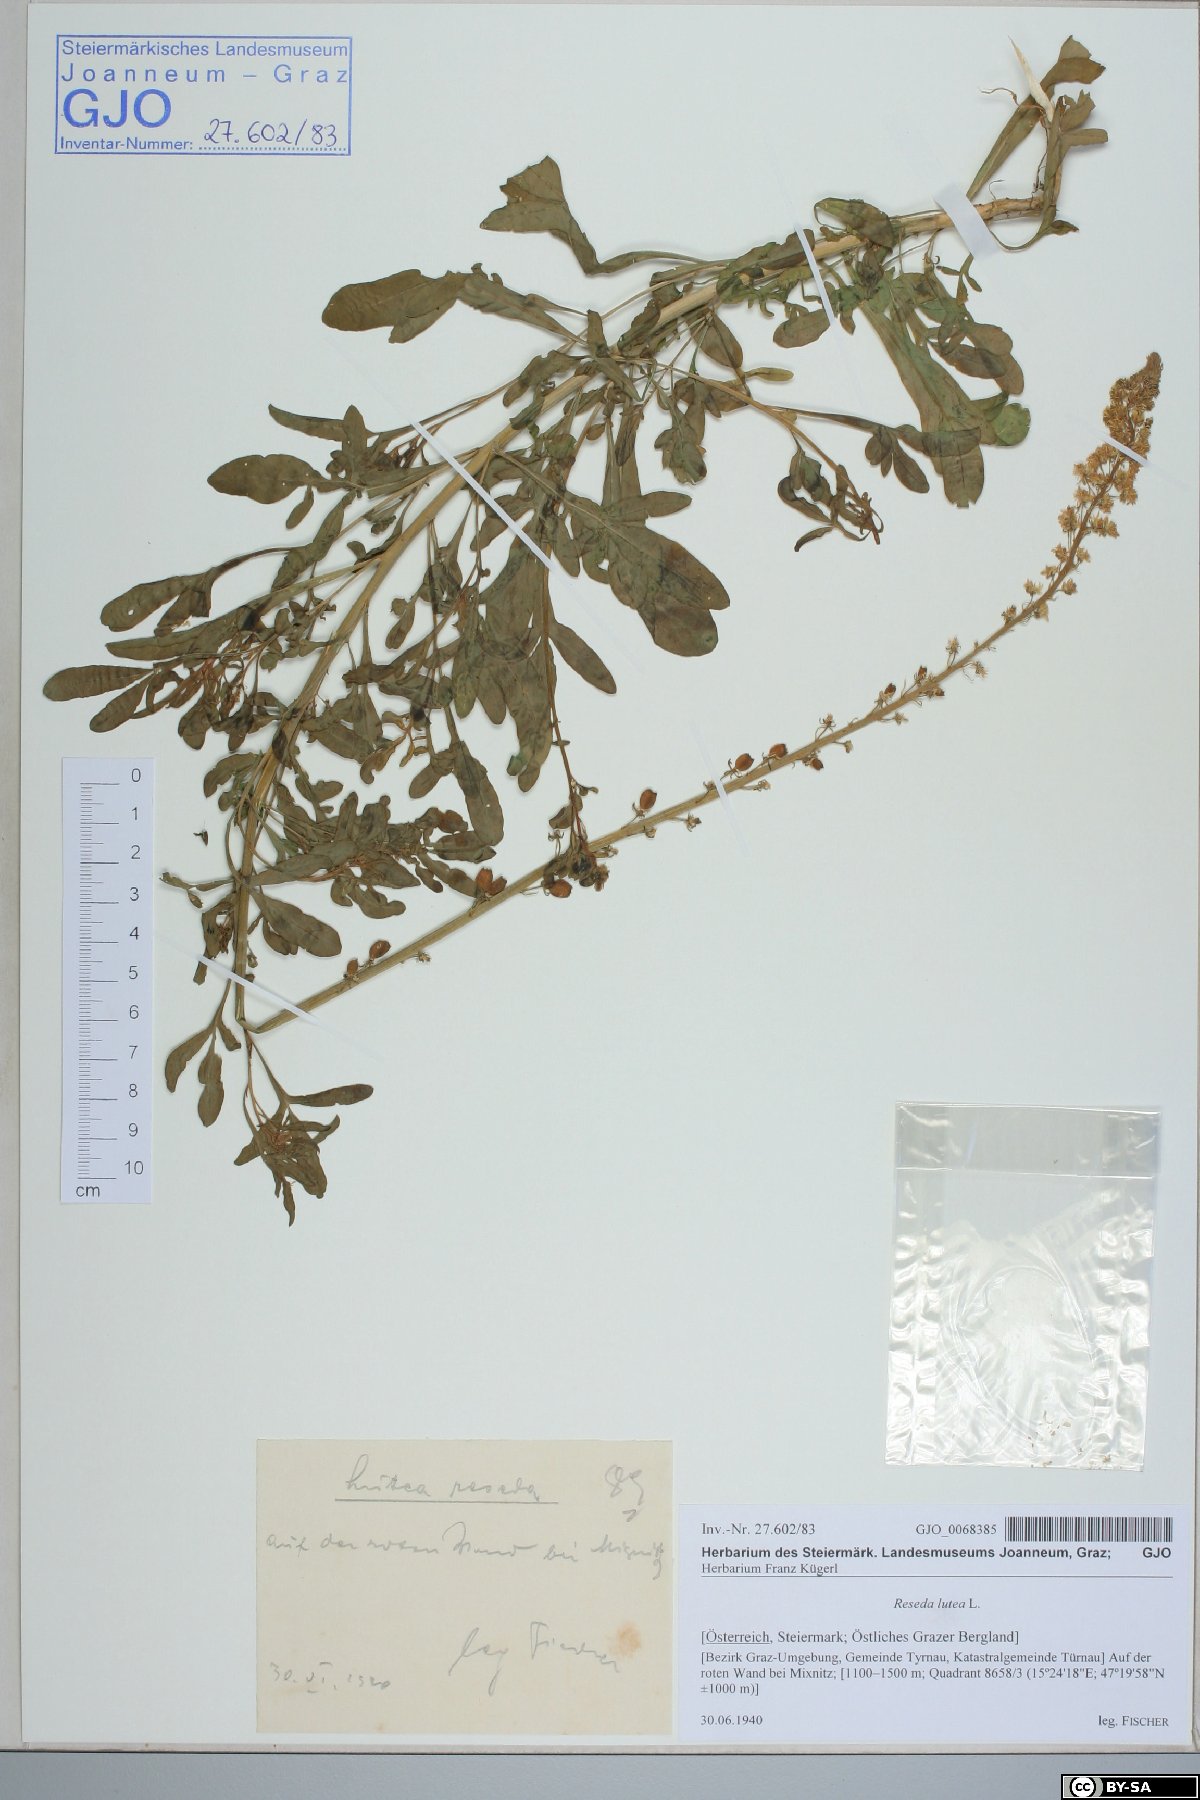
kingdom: Plantae
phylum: Tracheophyta
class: Magnoliopsida
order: Brassicales
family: Resedaceae
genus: Reseda
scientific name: Reseda lutea
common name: Wild mignonette
